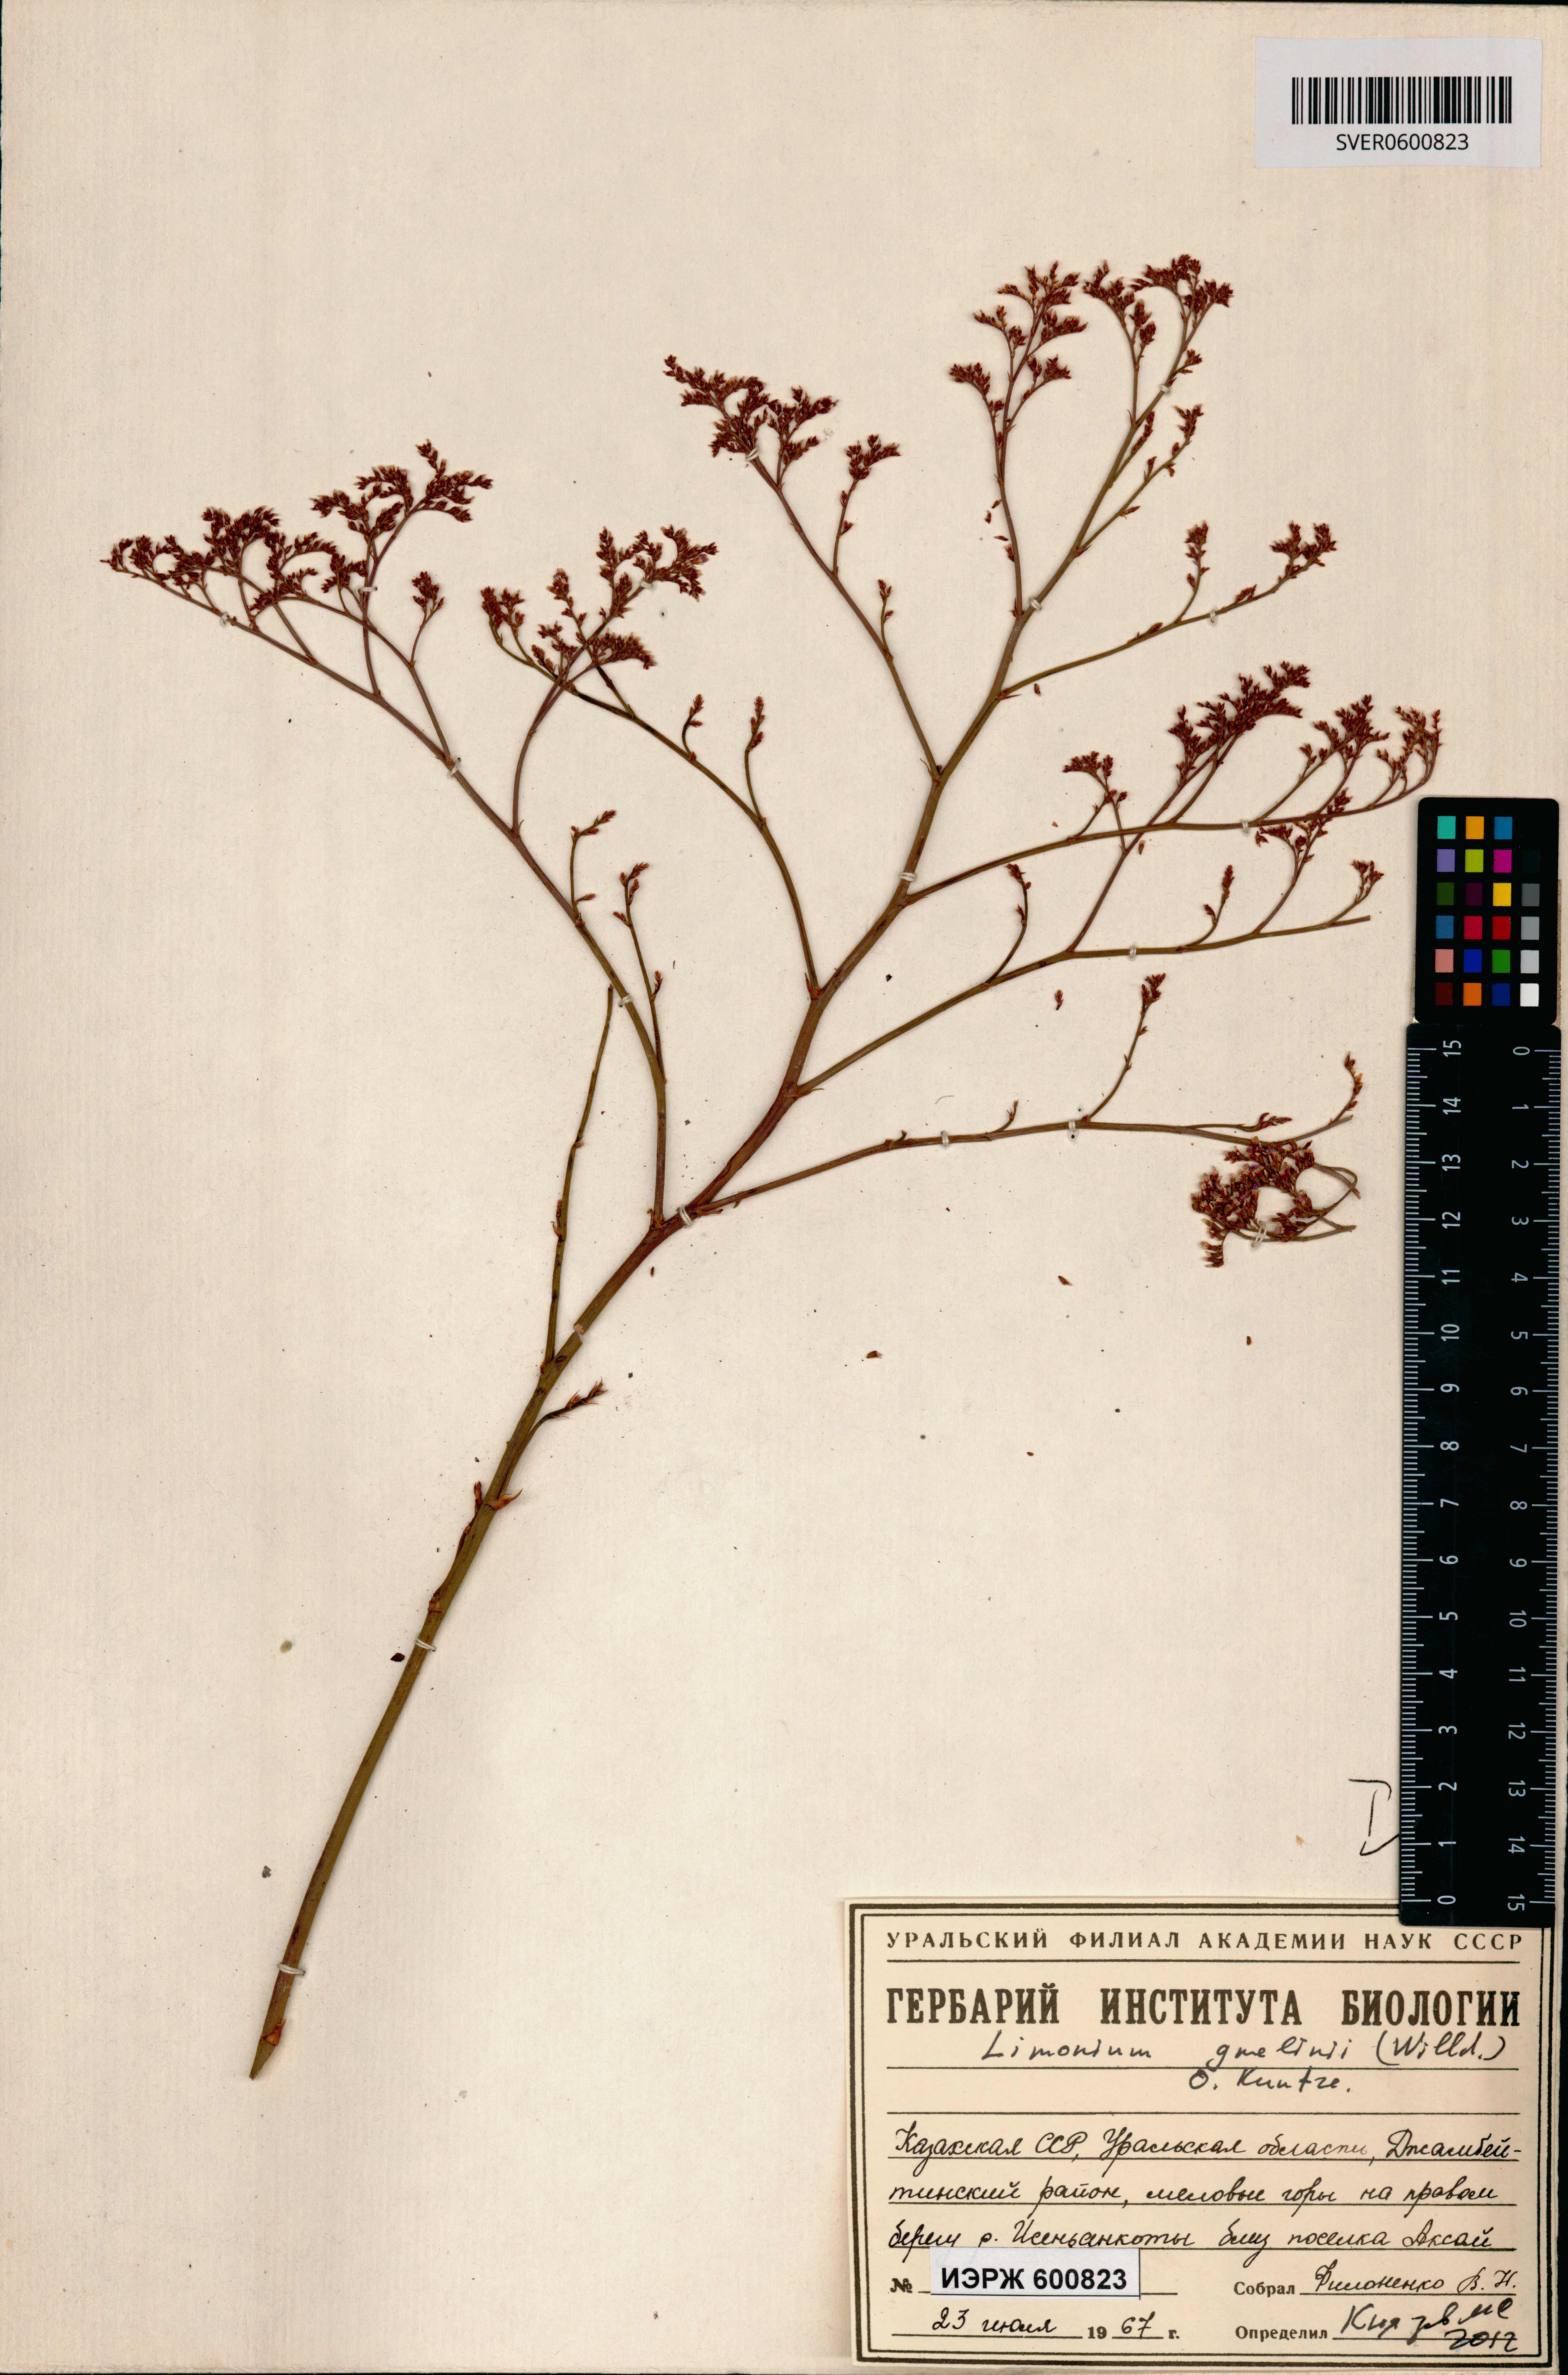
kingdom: Plantae
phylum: Tracheophyta
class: Magnoliopsida
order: Caryophyllales
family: Plumbaginaceae
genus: Limonium
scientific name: Limonium gmelini
